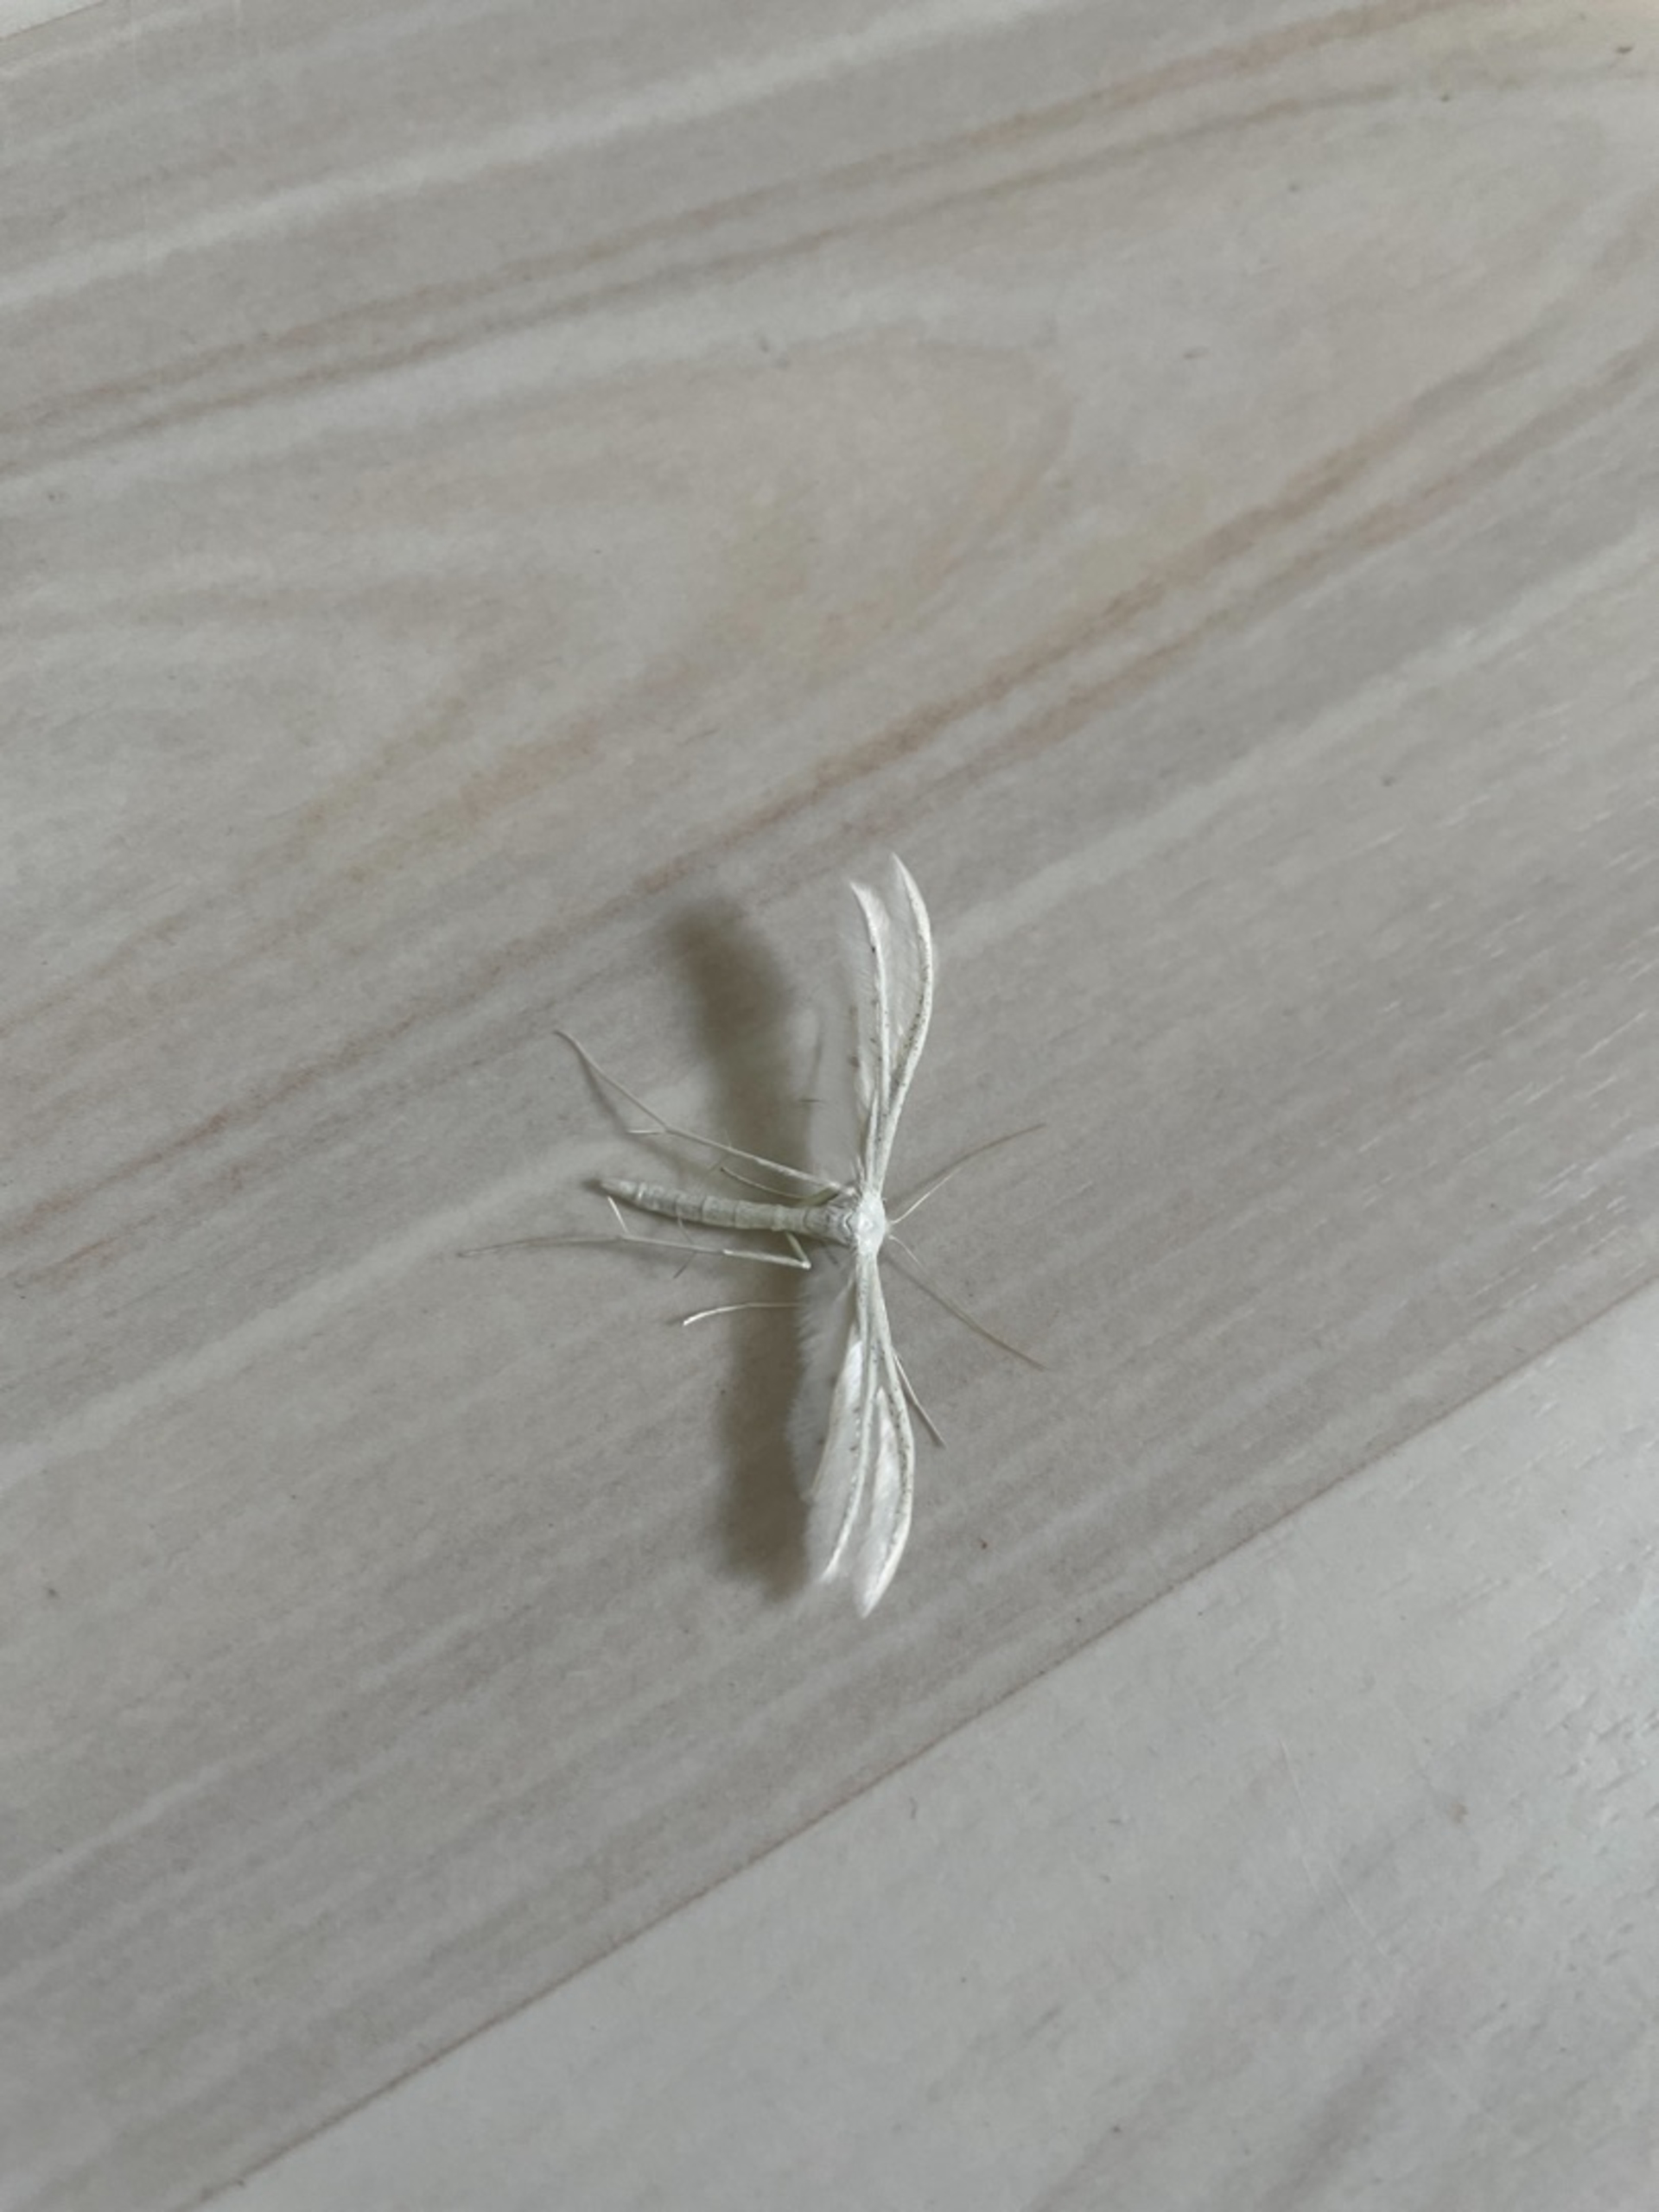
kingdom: Animalia
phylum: Arthropoda
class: Insecta
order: Lepidoptera
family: Pterophoridae
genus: Pterophorus
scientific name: Pterophorus pentadactyla
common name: Hvidt fjermøl
